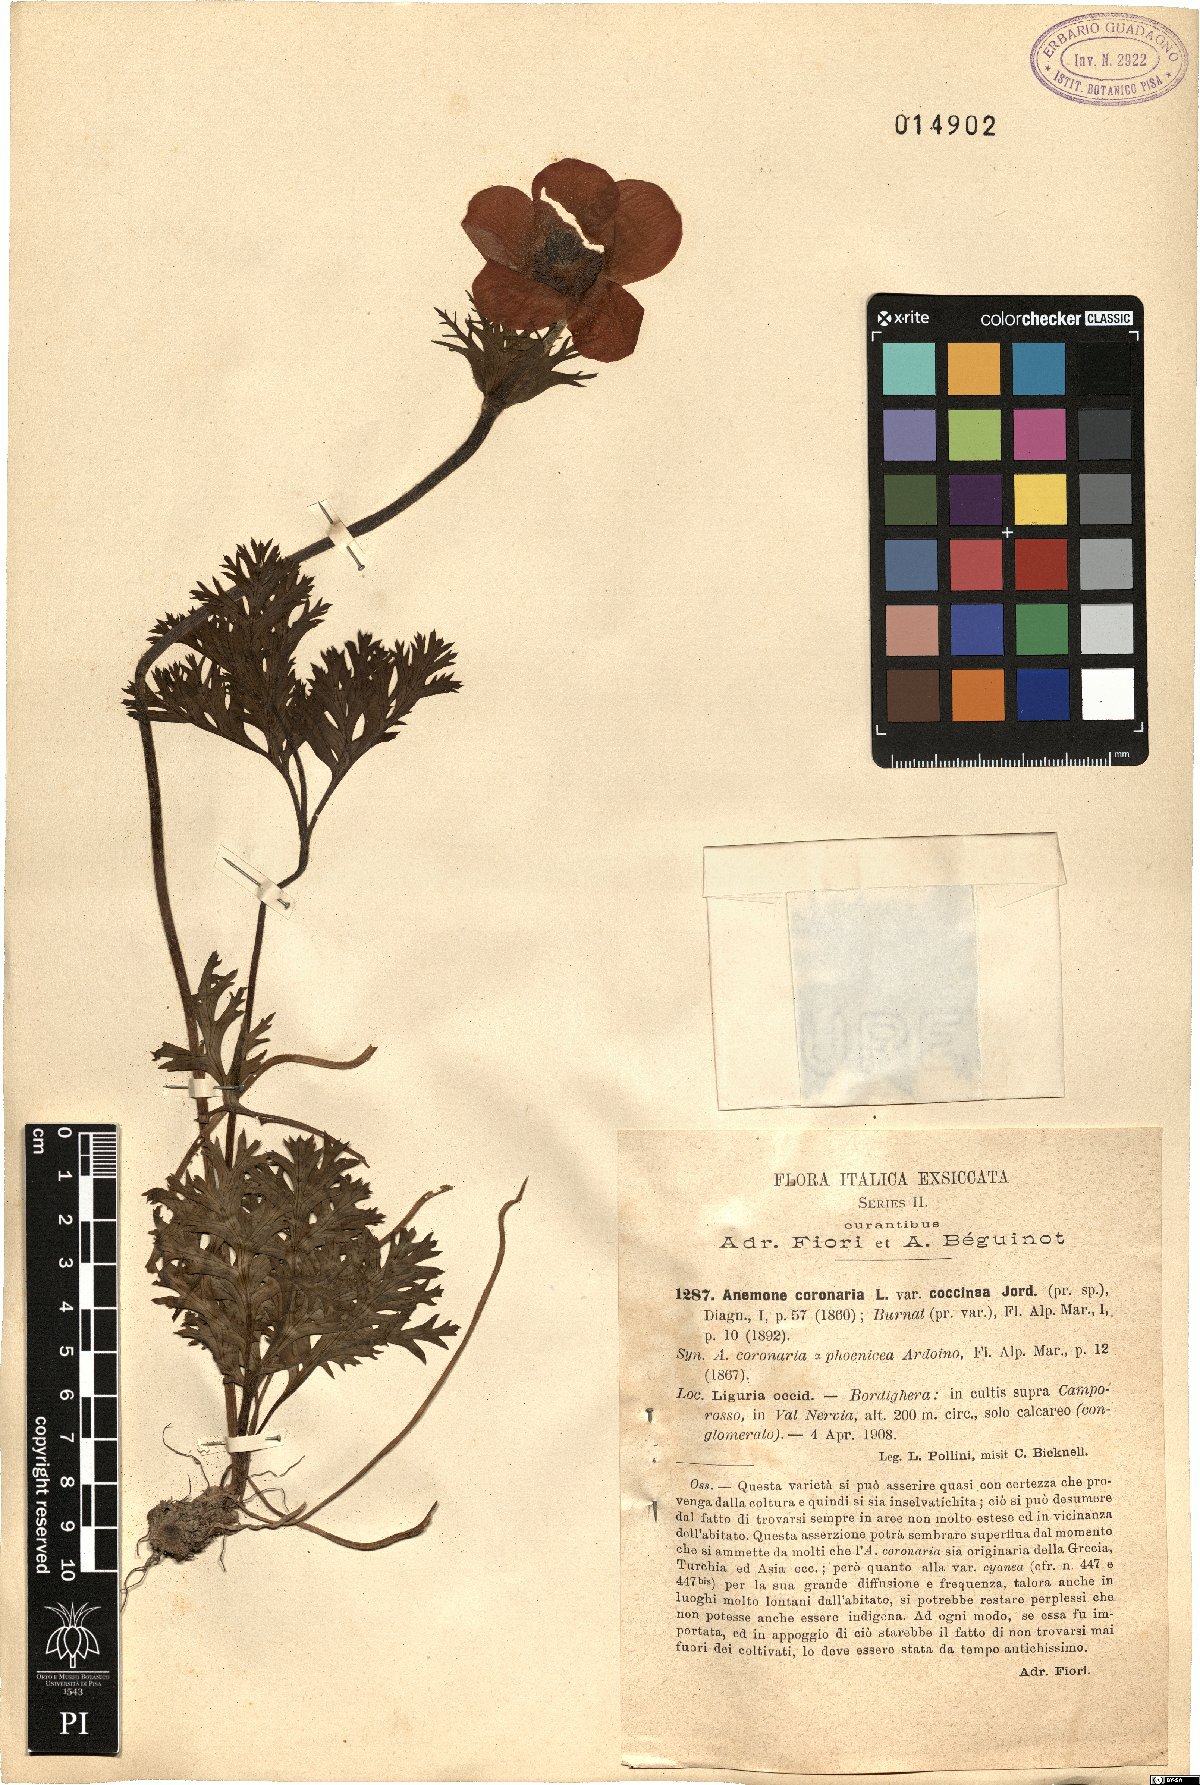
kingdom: Plantae
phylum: Tracheophyta
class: Magnoliopsida
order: Ranunculales
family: Ranunculaceae
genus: Anemone
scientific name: Anemone coronaria
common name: Poppy anemone
